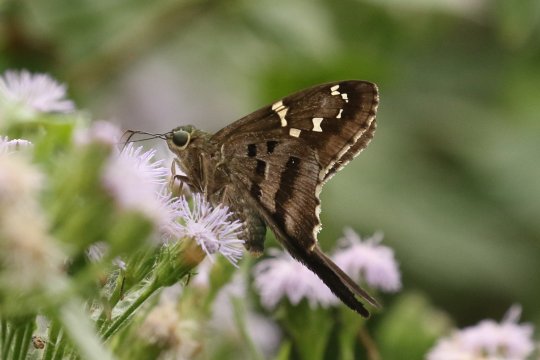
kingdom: Animalia
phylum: Arthropoda
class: Insecta
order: Lepidoptera
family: Hesperiidae
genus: Urbanus
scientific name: Urbanus proteus
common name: Long-tailed Skipper
